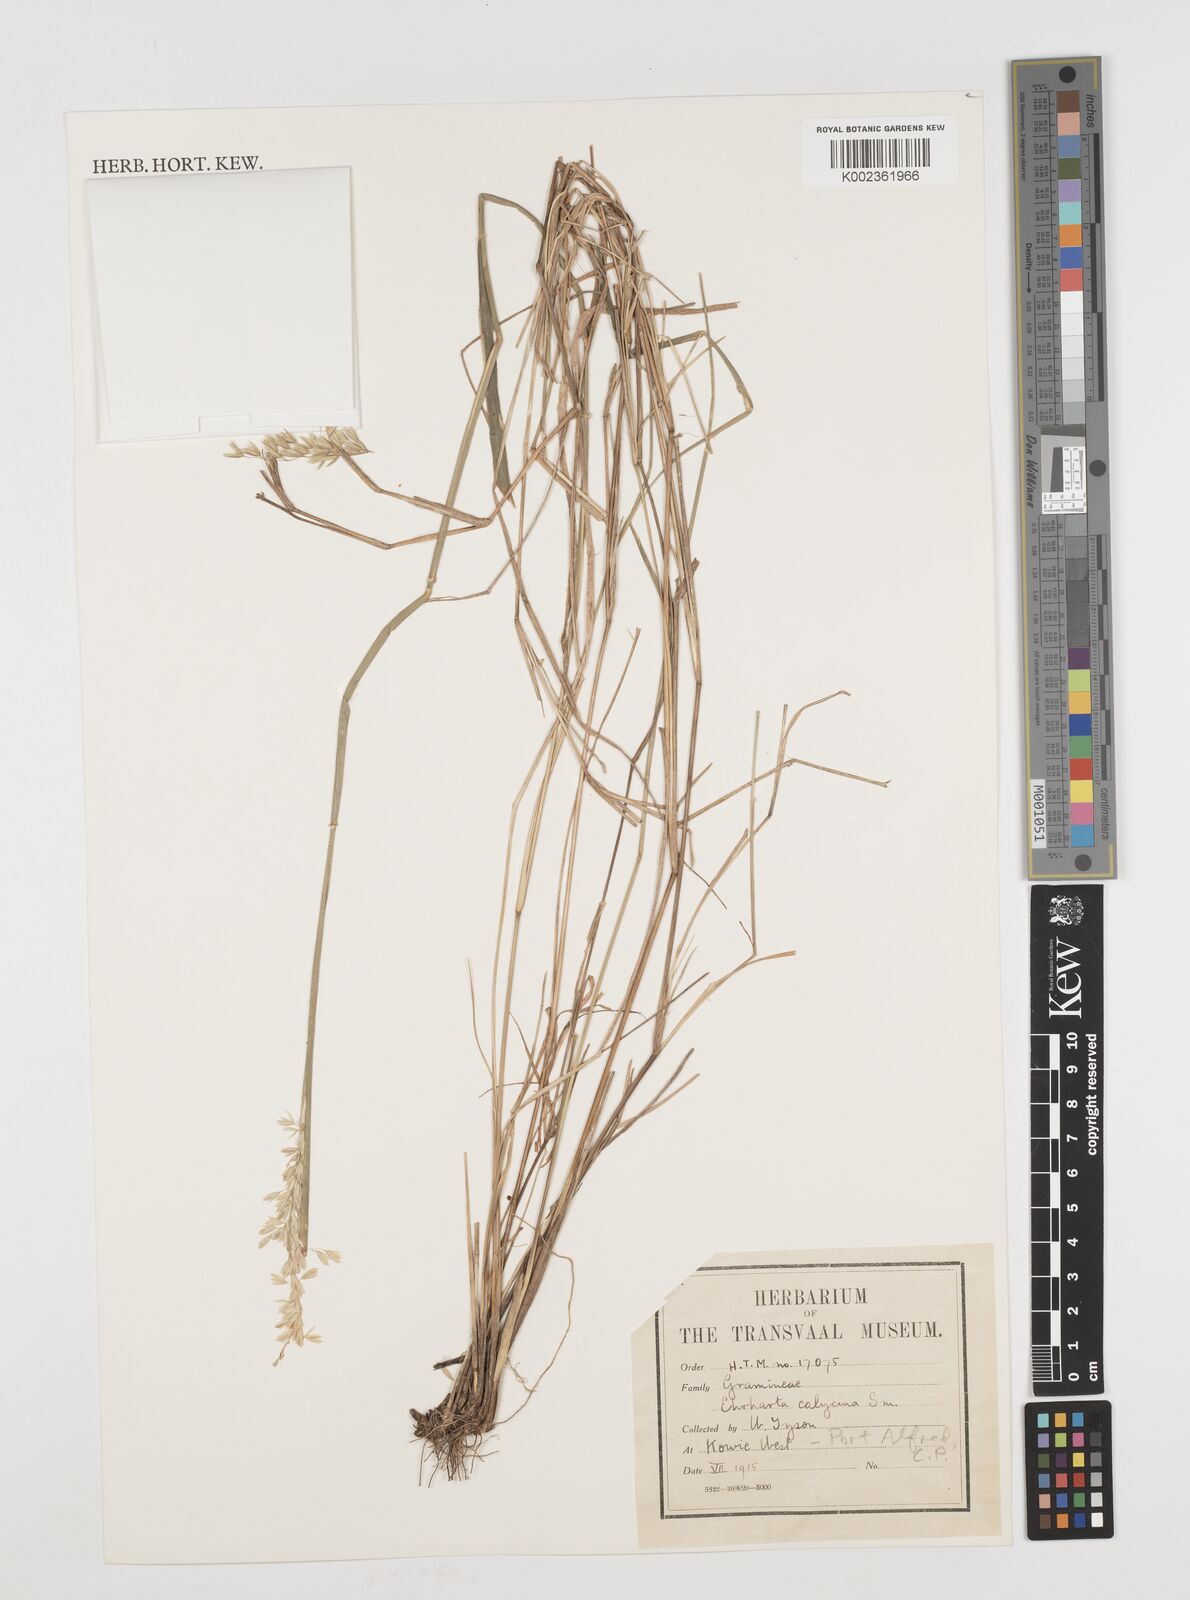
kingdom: Plantae
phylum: Tracheophyta
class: Liliopsida
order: Poales
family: Poaceae
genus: Ehrharta
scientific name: Ehrharta calycina
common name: Perennial veldtgrass
